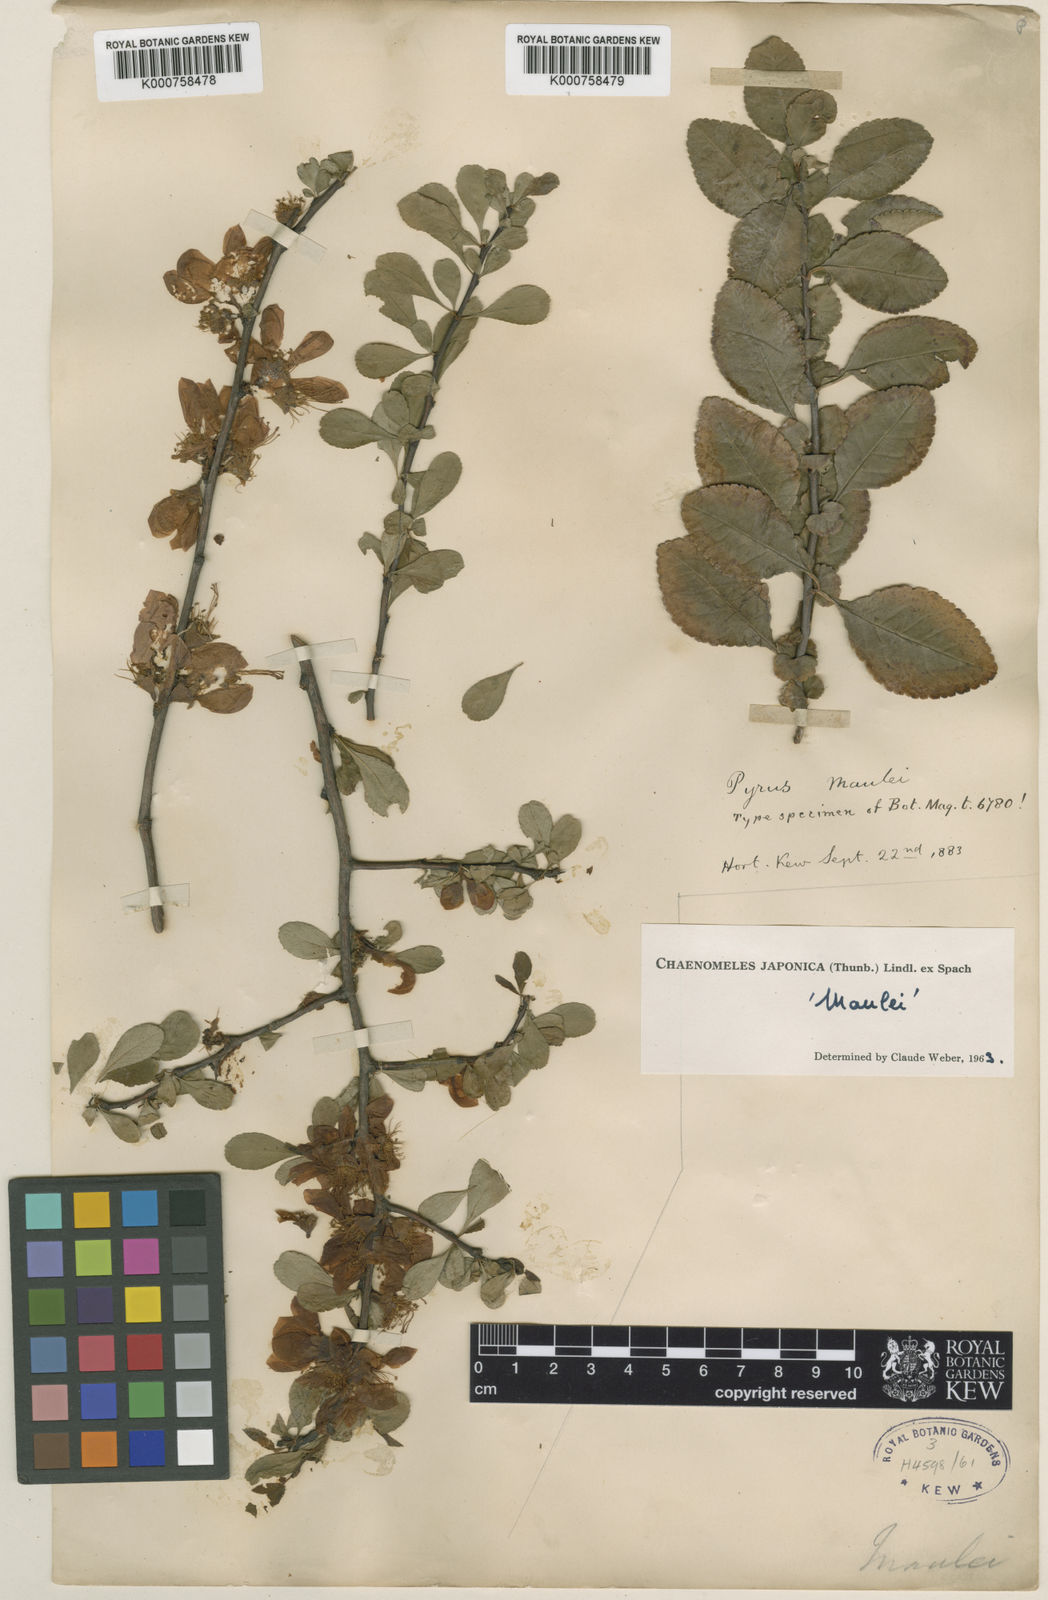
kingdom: Plantae
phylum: Tracheophyta
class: Magnoliopsida
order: Rosales
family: Rosaceae
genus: Chaenomeles
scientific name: Chaenomeles japonica
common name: Japanese quince
